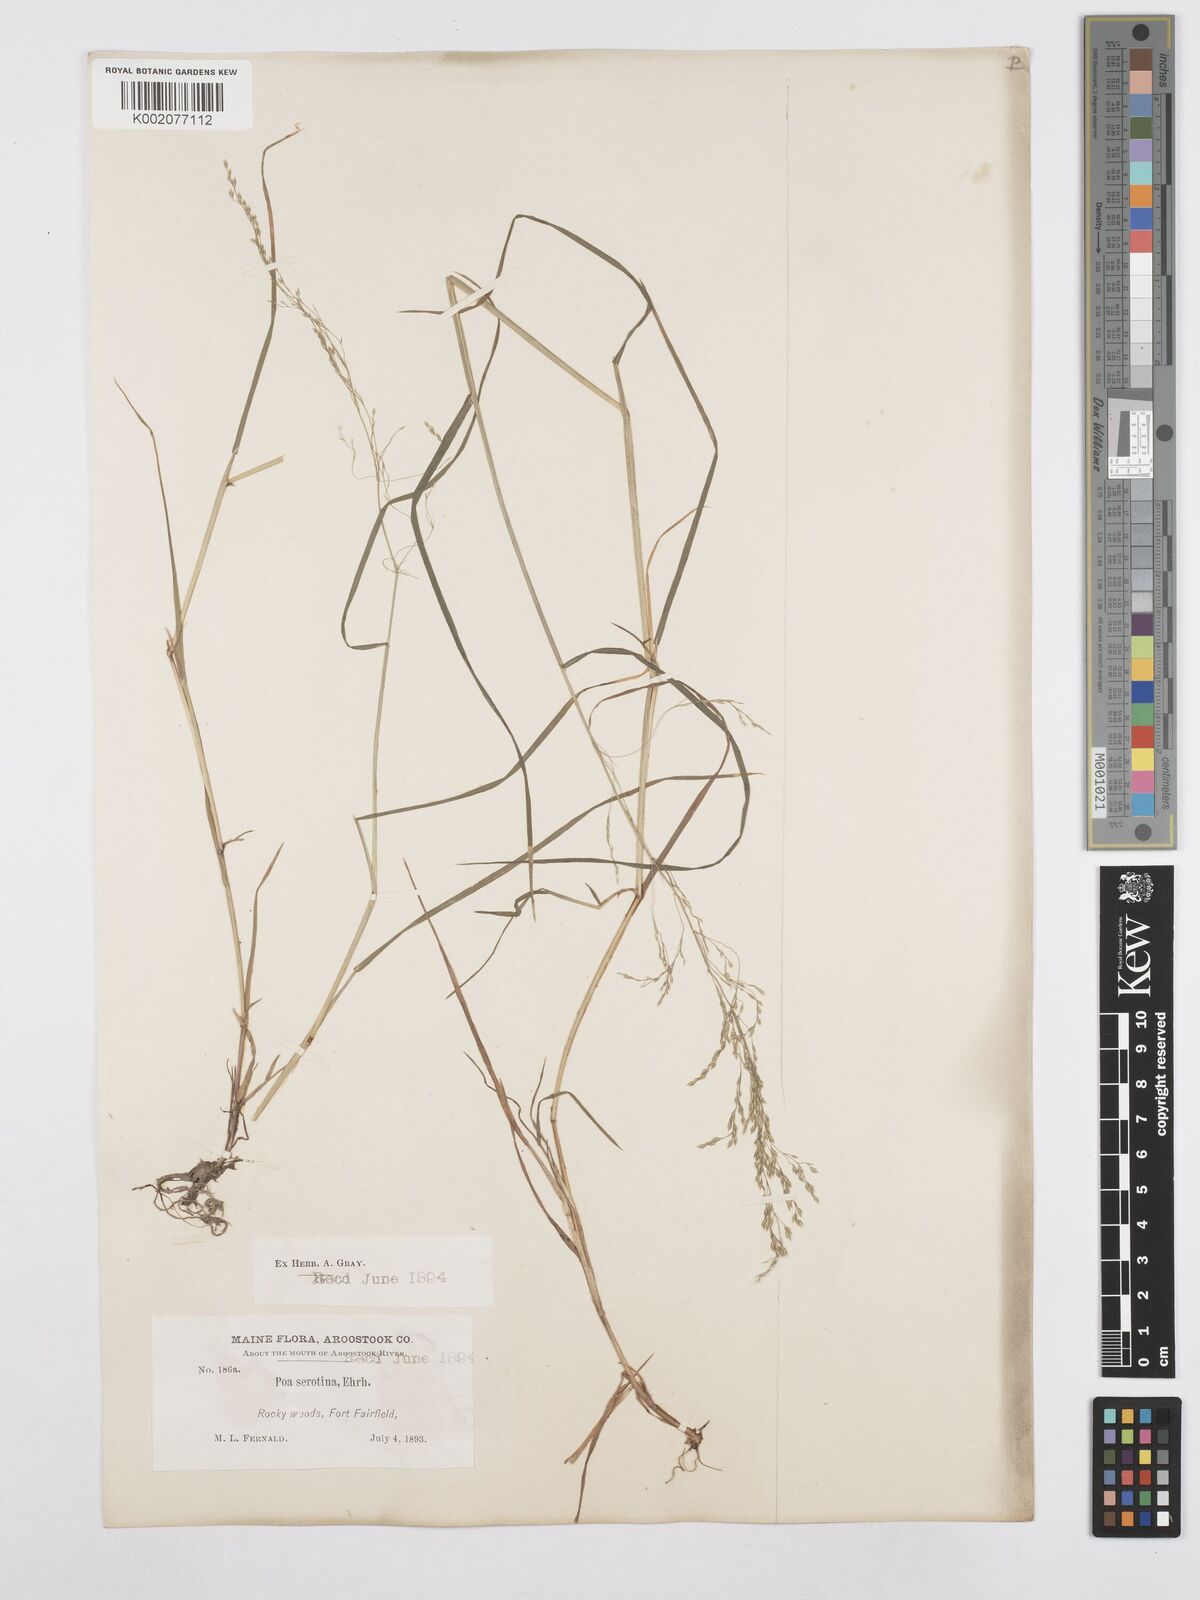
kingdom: Plantae
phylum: Tracheophyta
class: Liliopsida
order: Poales
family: Poaceae
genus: Poa
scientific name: Poa palustris
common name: Swamp meadow-grass
